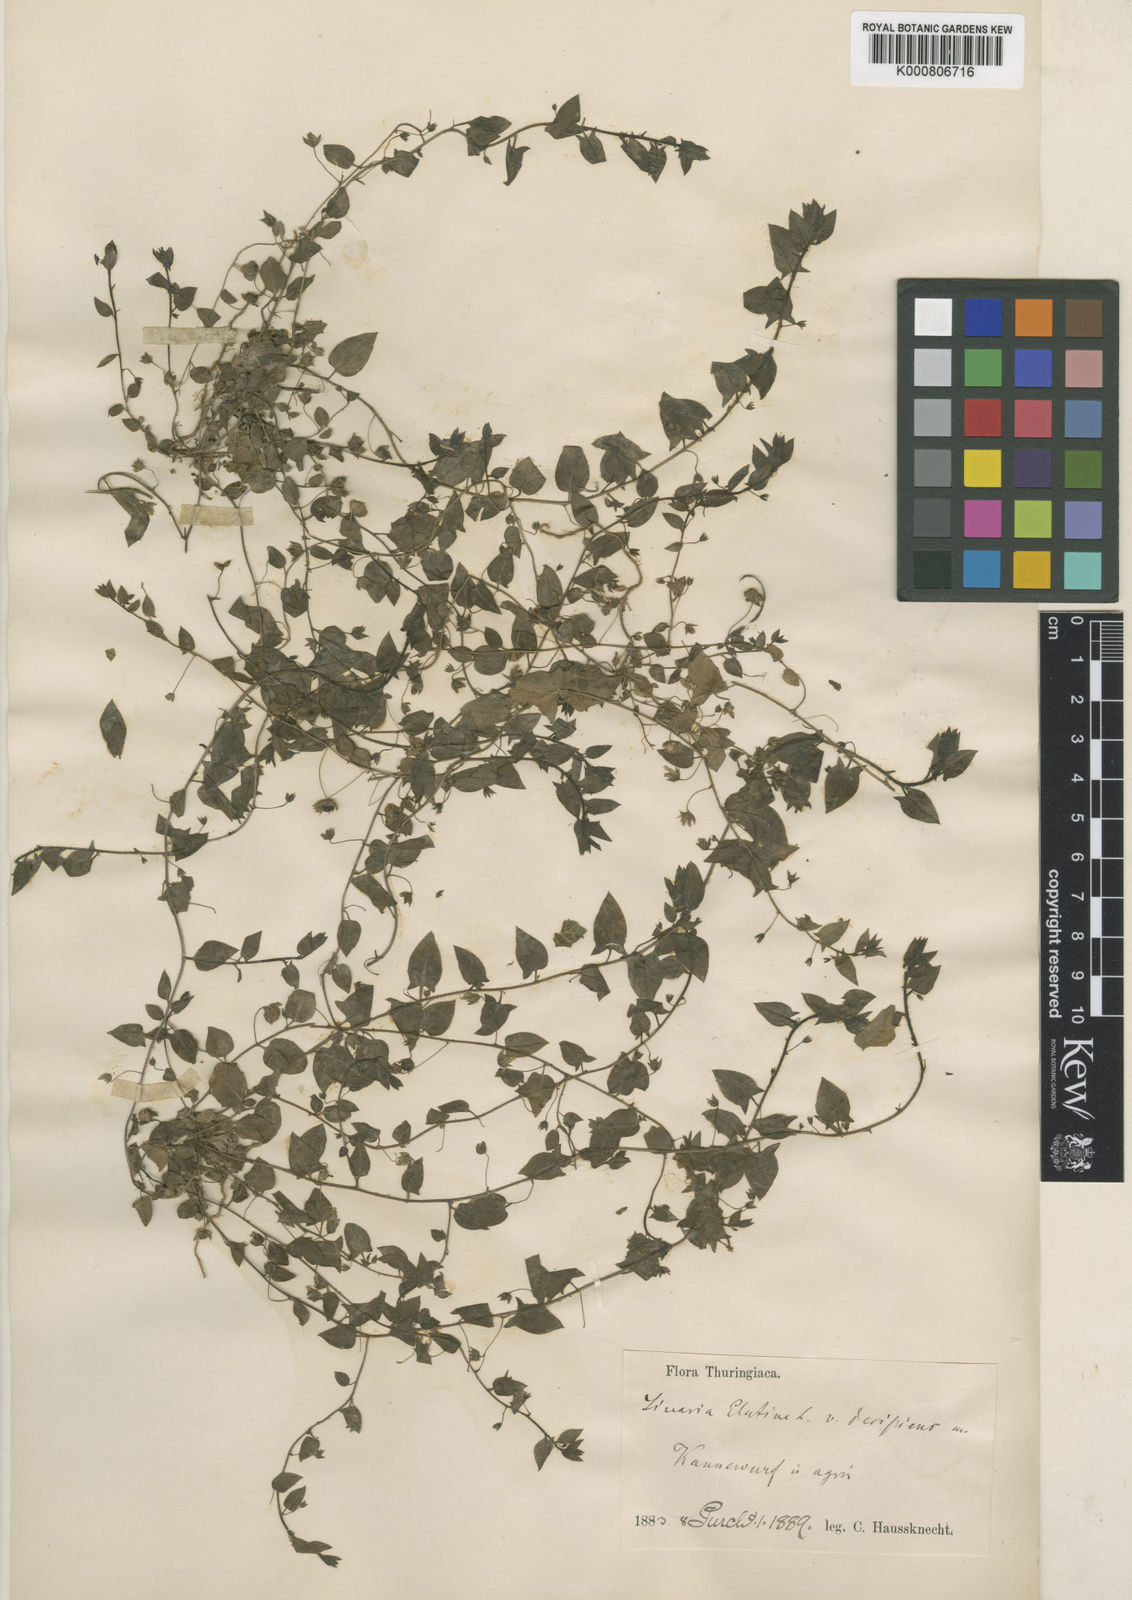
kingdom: Plantae
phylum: Tracheophyta
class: Magnoliopsida
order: Lamiales
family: Plantaginaceae
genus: Kickxia
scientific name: Kickxia elatine
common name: Sharp-leaved fluellen
